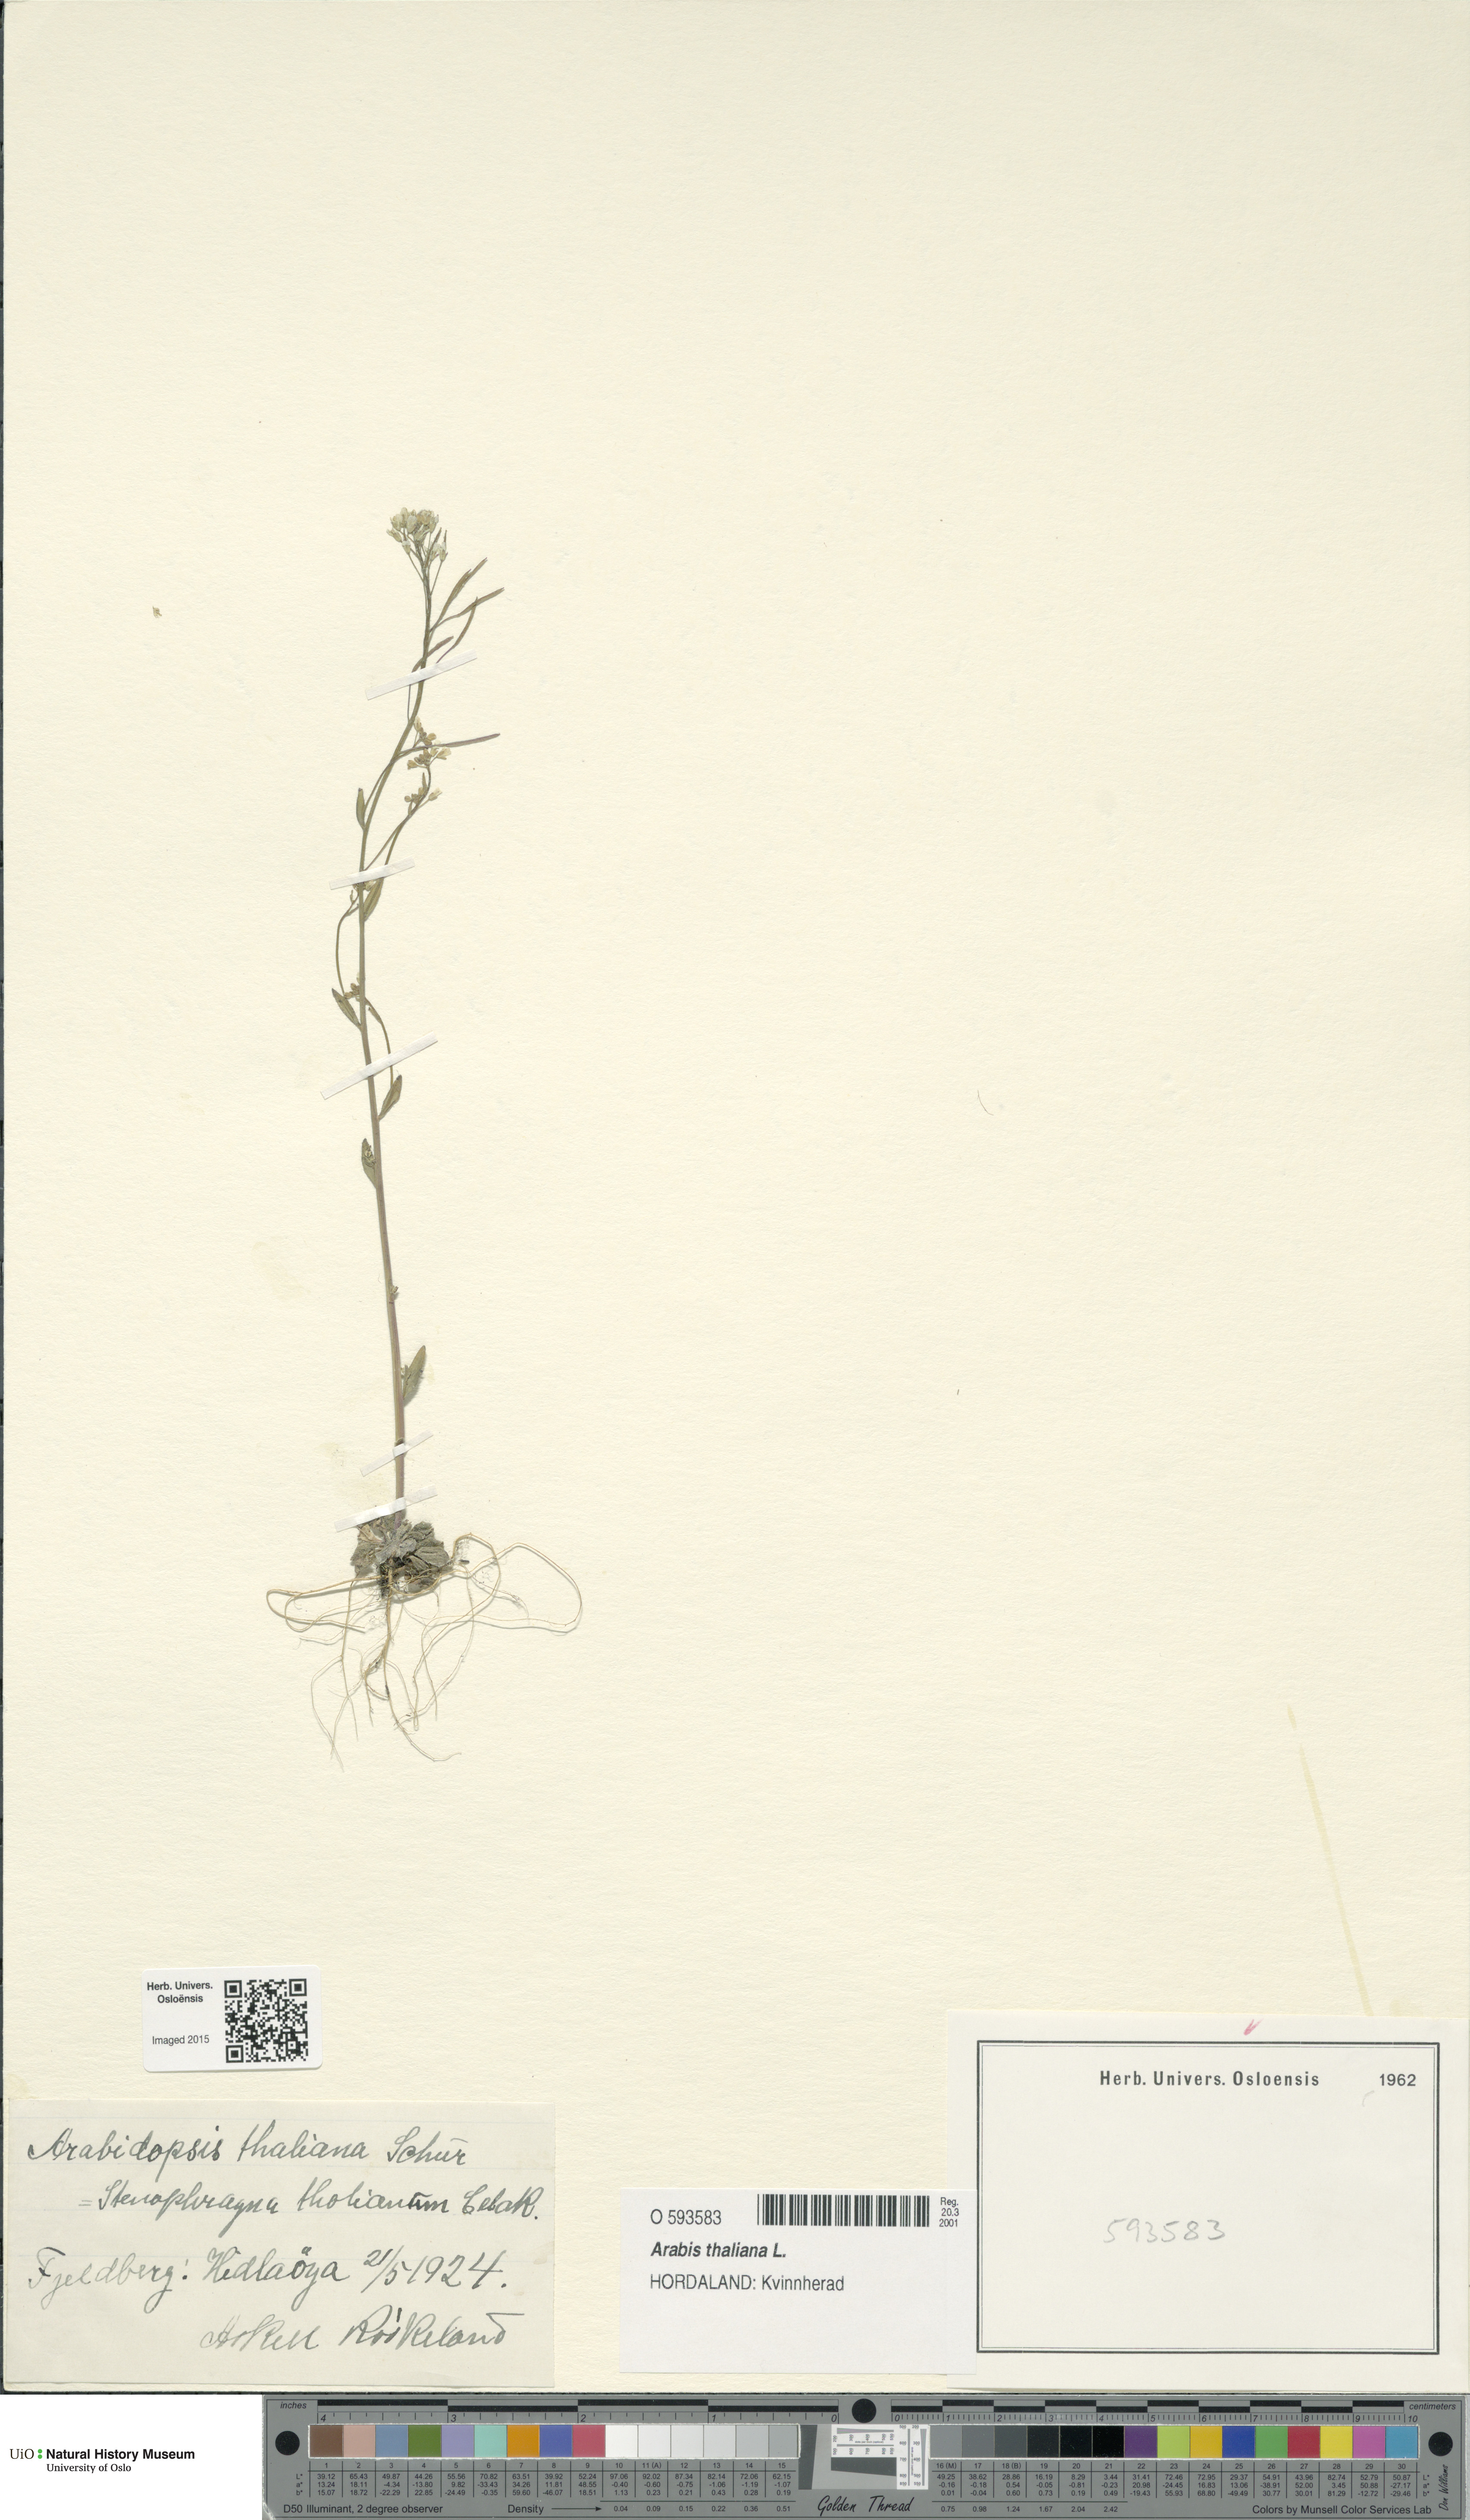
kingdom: Plantae
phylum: Tracheophyta
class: Magnoliopsida
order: Brassicales
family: Brassicaceae
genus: Arabidopsis
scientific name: Arabidopsis thaliana
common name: Thale cress
